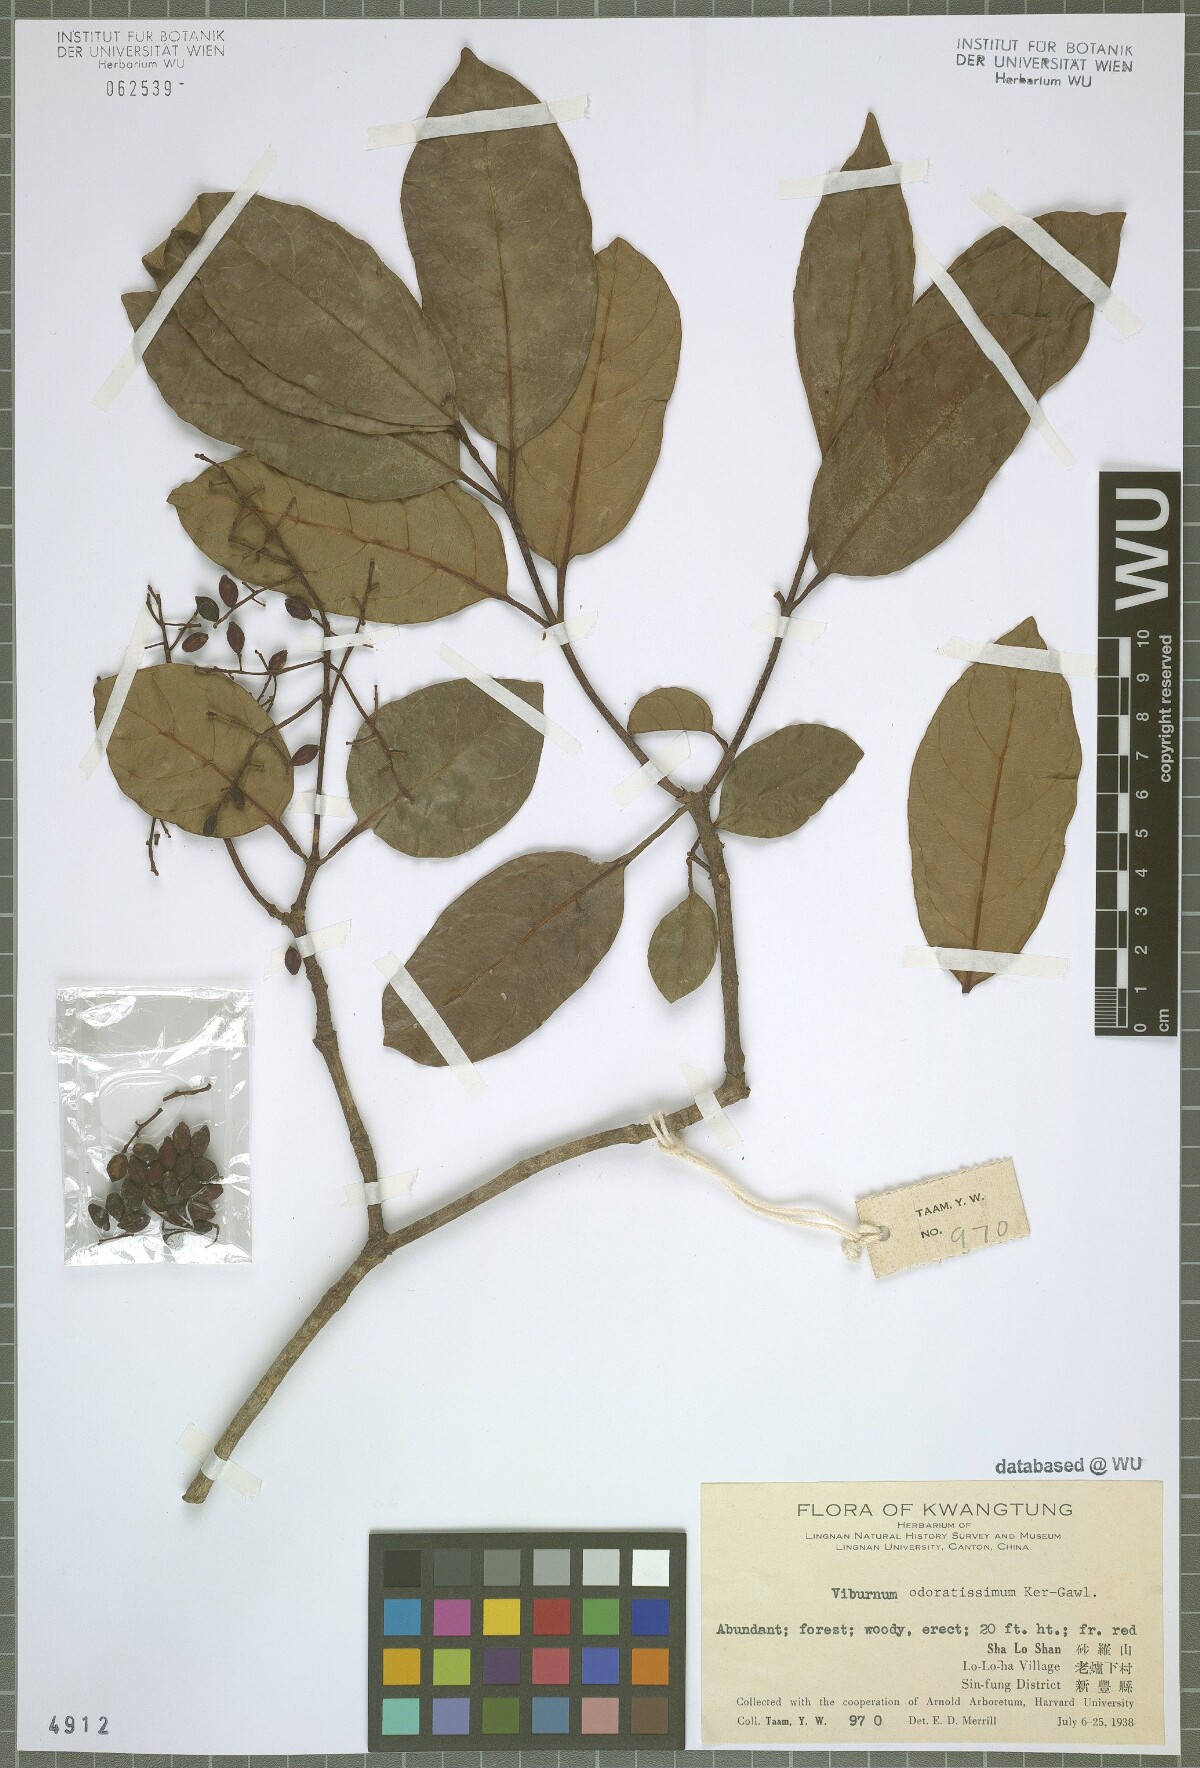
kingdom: Plantae
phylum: Tracheophyta
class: Magnoliopsida
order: Dipsacales
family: Viburnaceae
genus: Viburnum
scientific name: Viburnum odoratissimum
